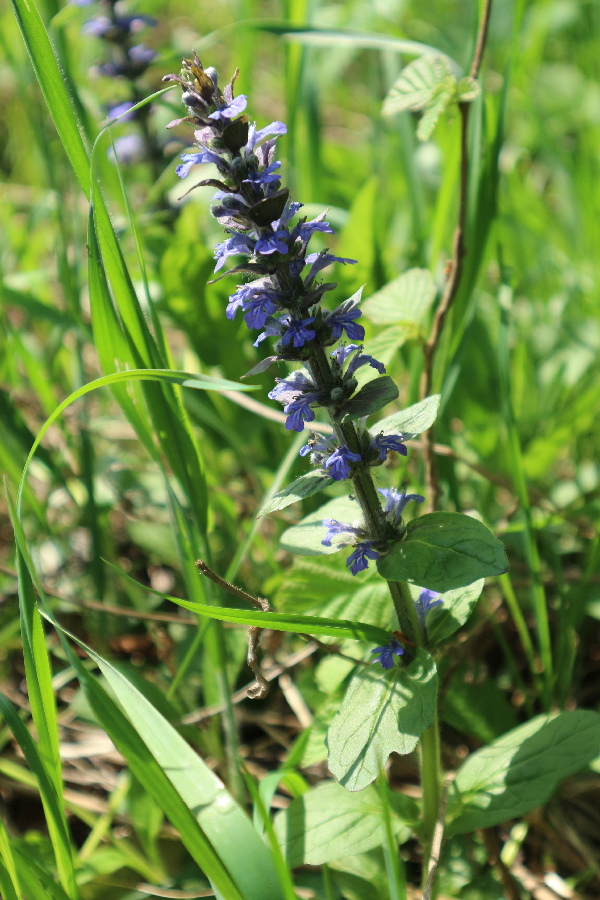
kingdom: Plantae
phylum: Tracheophyta
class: Magnoliopsida
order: Lamiales
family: Lamiaceae
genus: Ajuga
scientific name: Ajuga reptans
